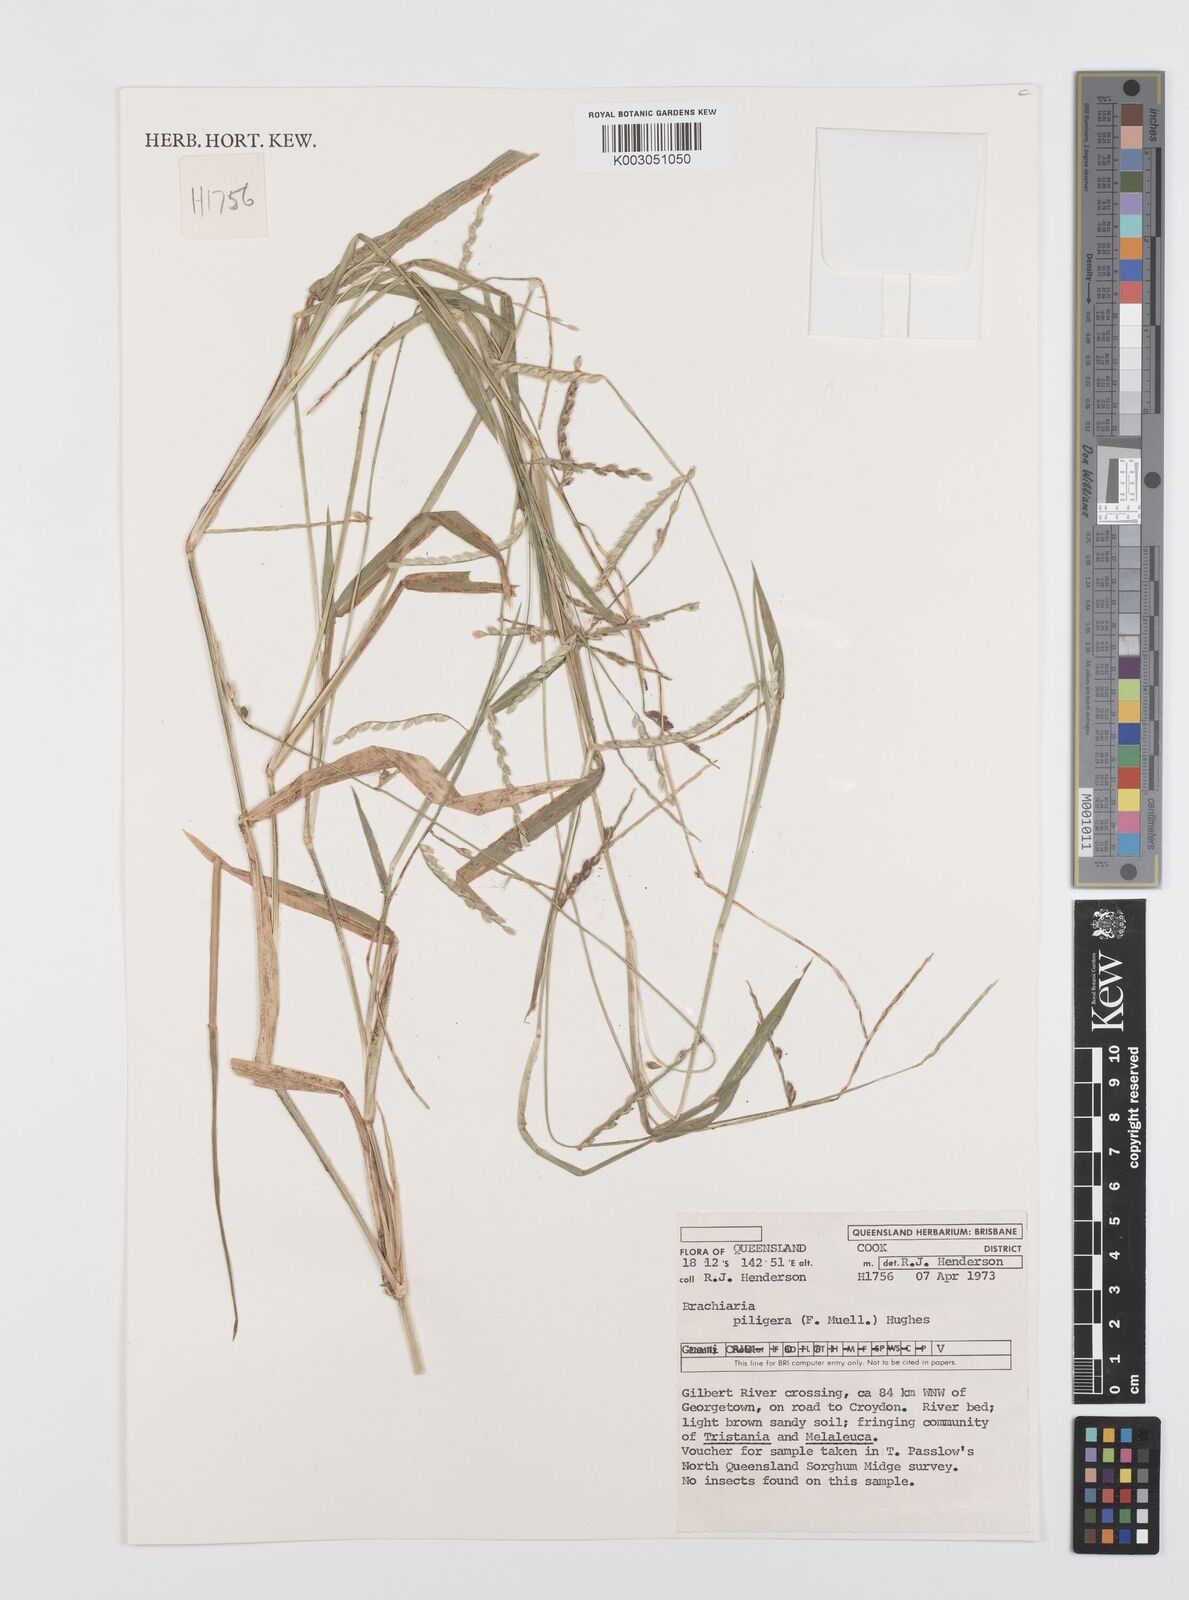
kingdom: Plantae
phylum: Tracheophyta
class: Liliopsida
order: Poales
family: Poaceae
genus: Urochloa
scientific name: Urochloa piligera
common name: Wattle signalgrass
